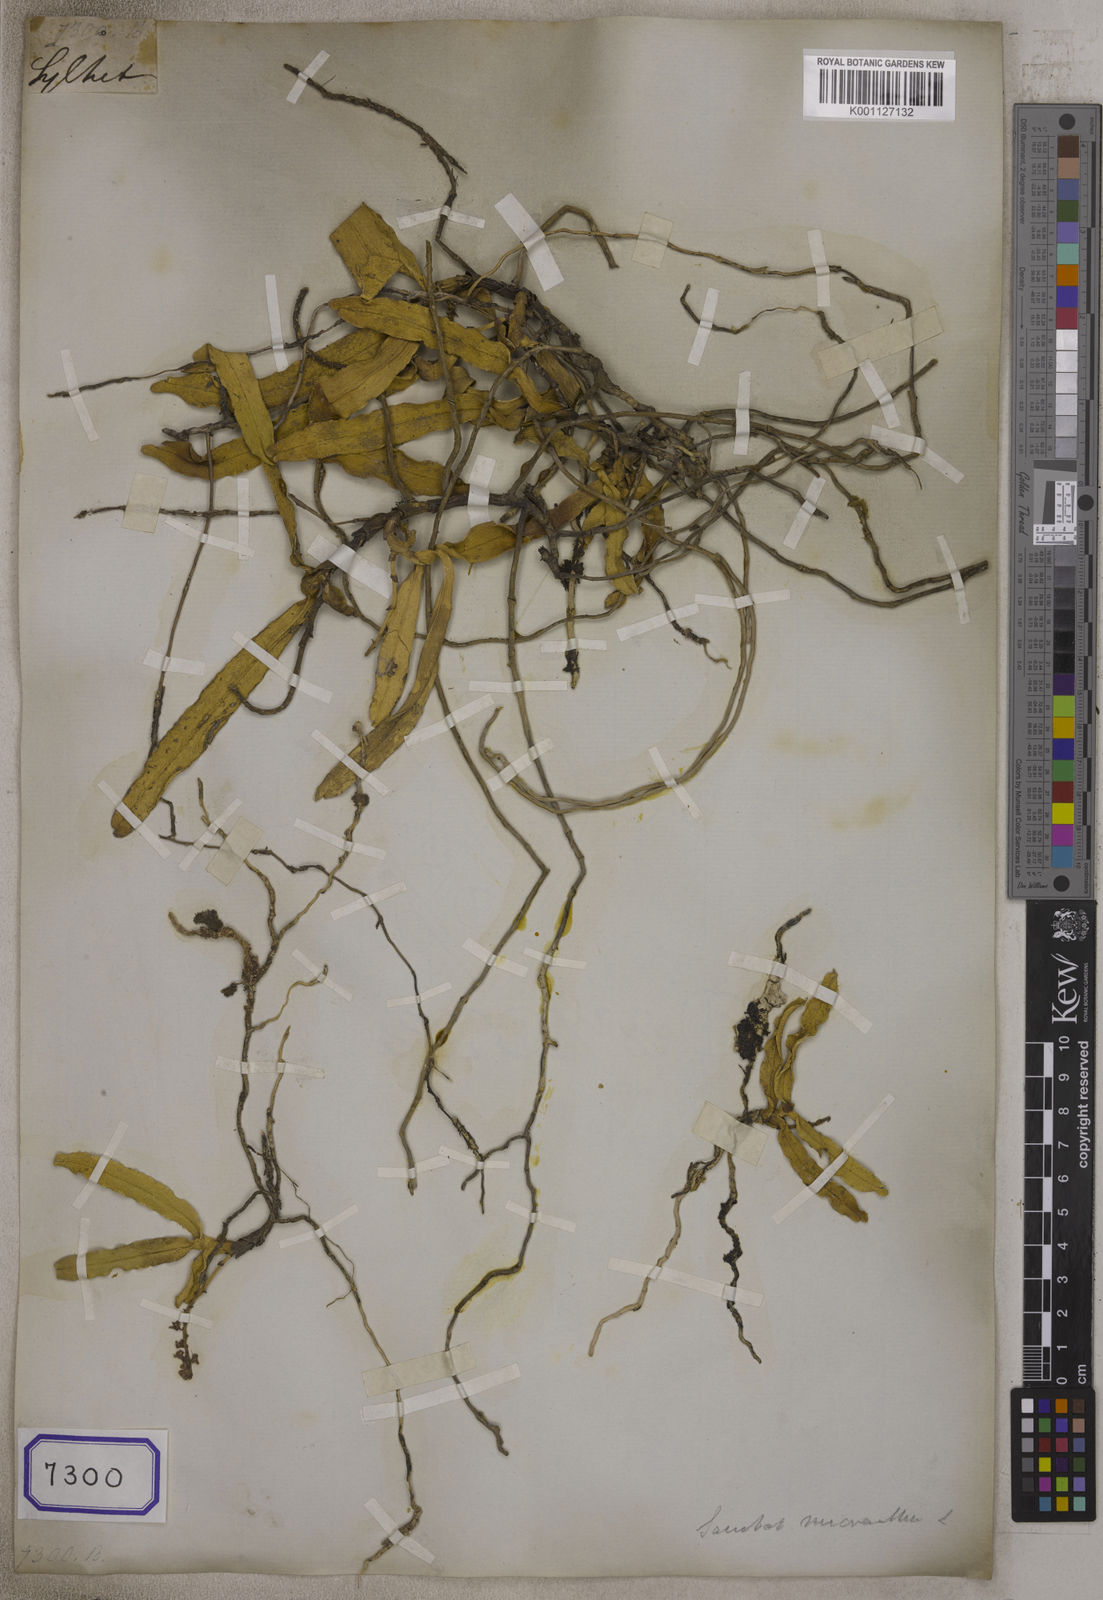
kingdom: Plantae
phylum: Tracheophyta
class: Liliopsida
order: Asparagales
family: Orchidaceae
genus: Smitinandia
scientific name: Smitinandia micrantha
